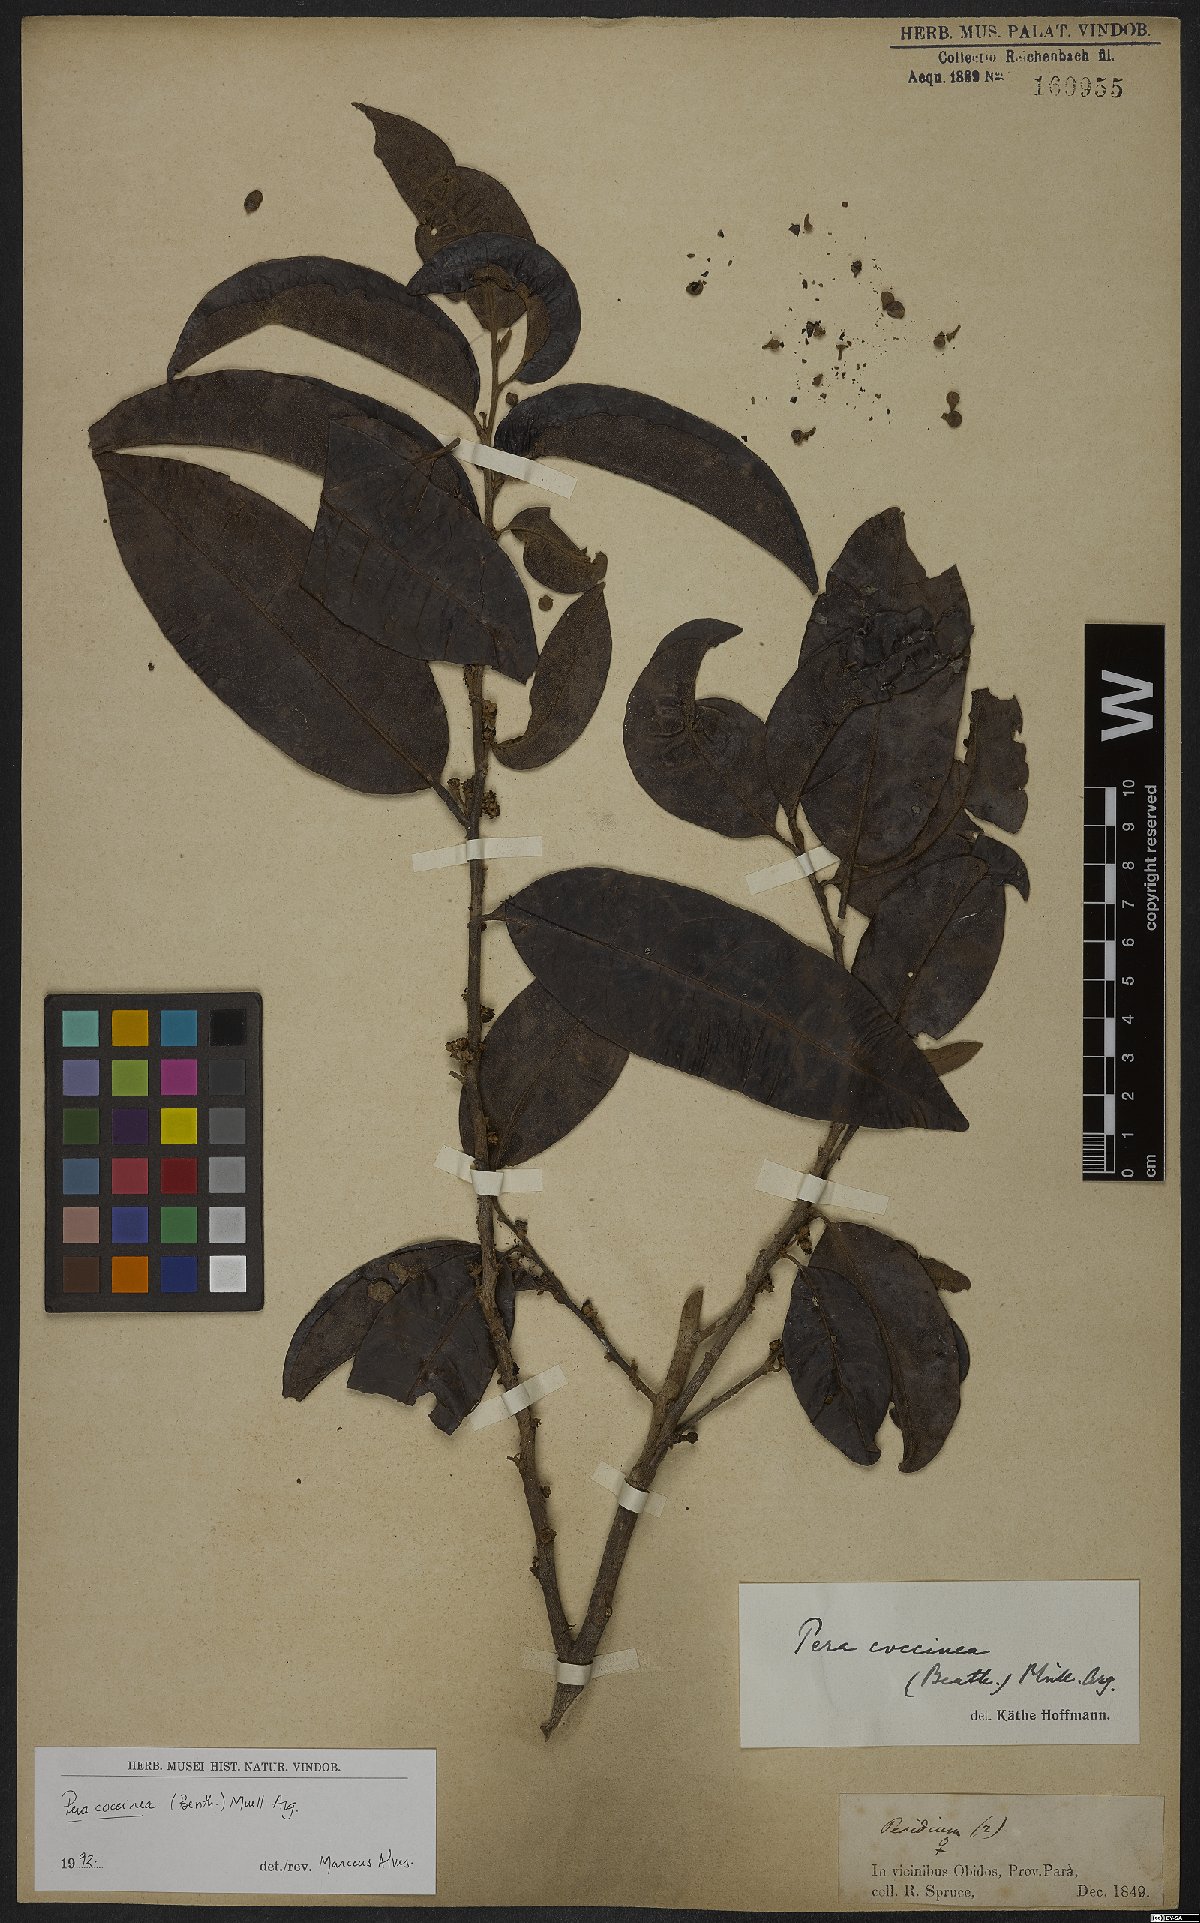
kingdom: Plantae
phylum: Tracheophyta
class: Magnoliopsida
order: Malpighiales
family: Peraceae
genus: Pera
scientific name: Pera coccinea
